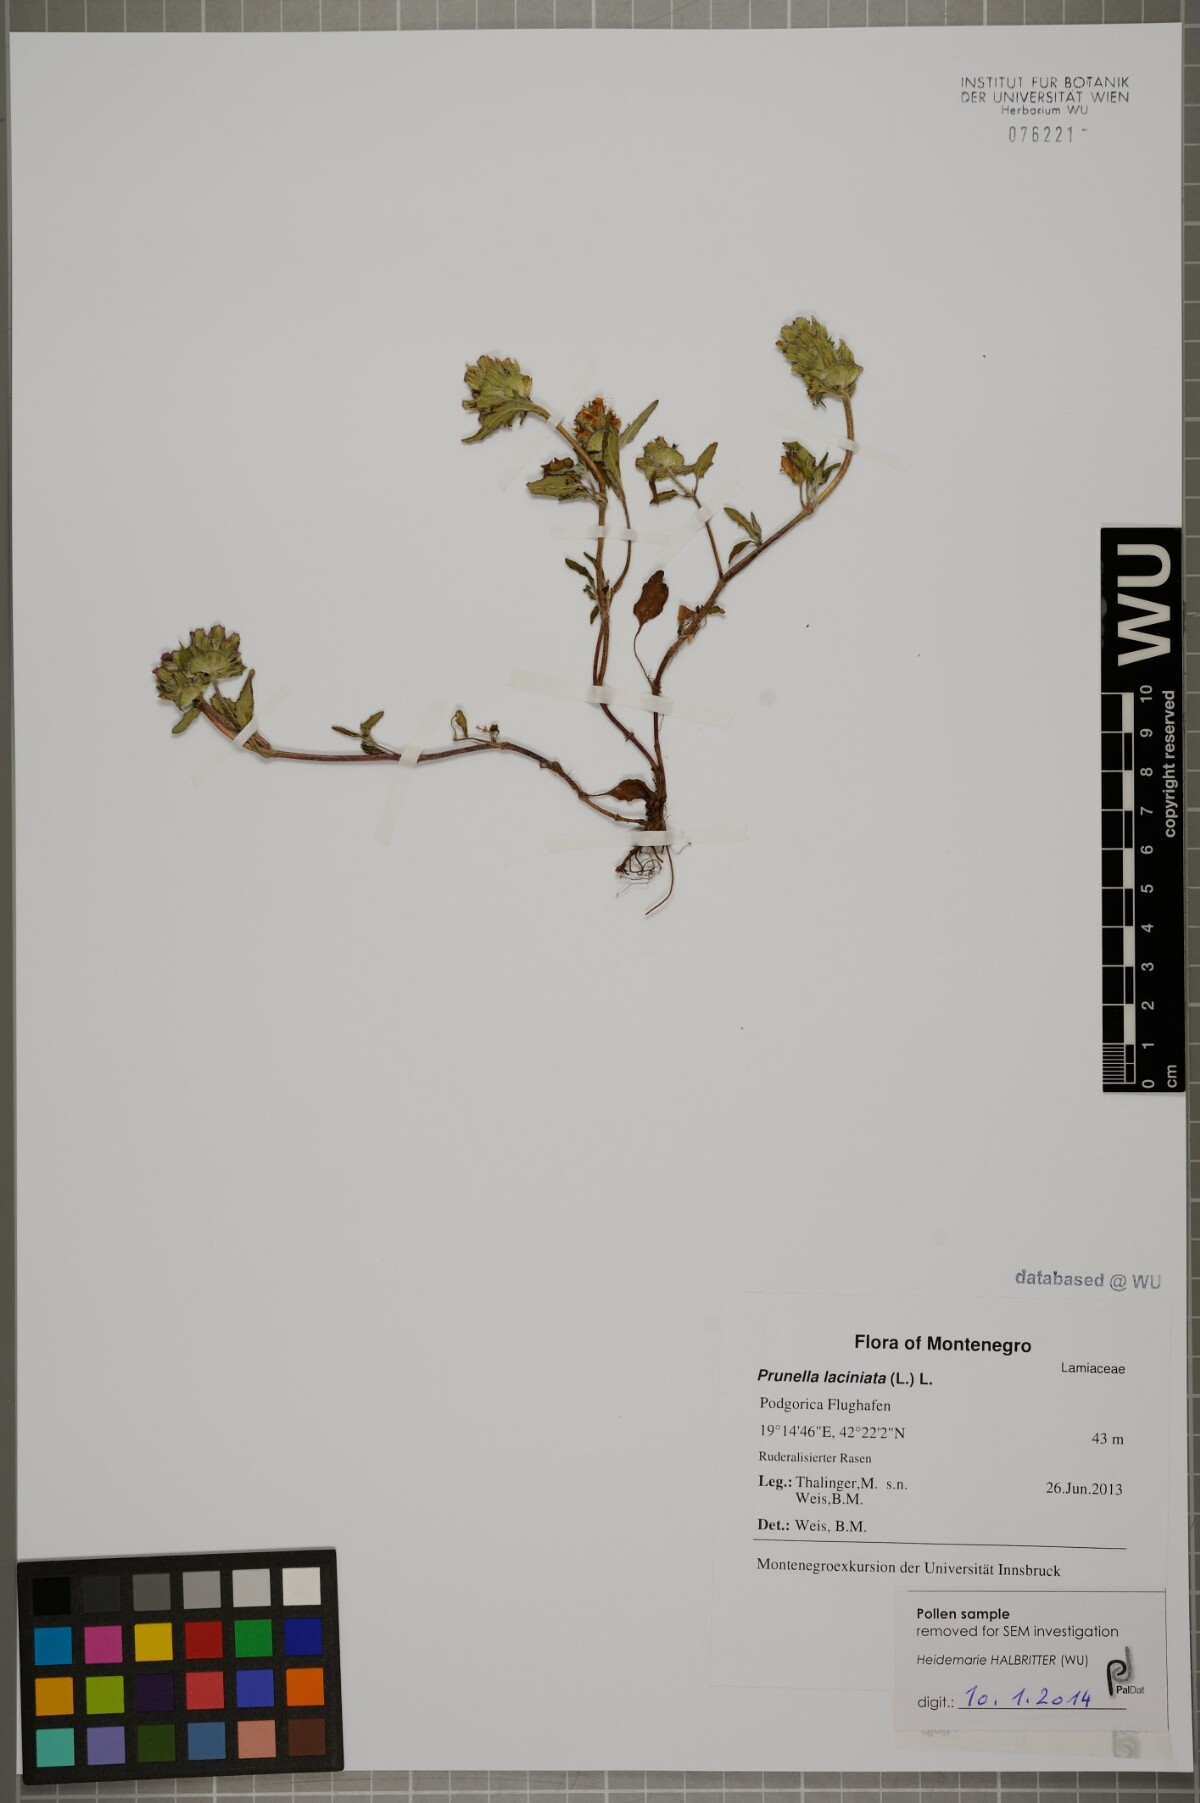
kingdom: Plantae
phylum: Tracheophyta
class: Magnoliopsida
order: Lamiales
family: Lamiaceae
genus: Prunella
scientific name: Prunella laciniata
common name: Cut-leaved selfheal
